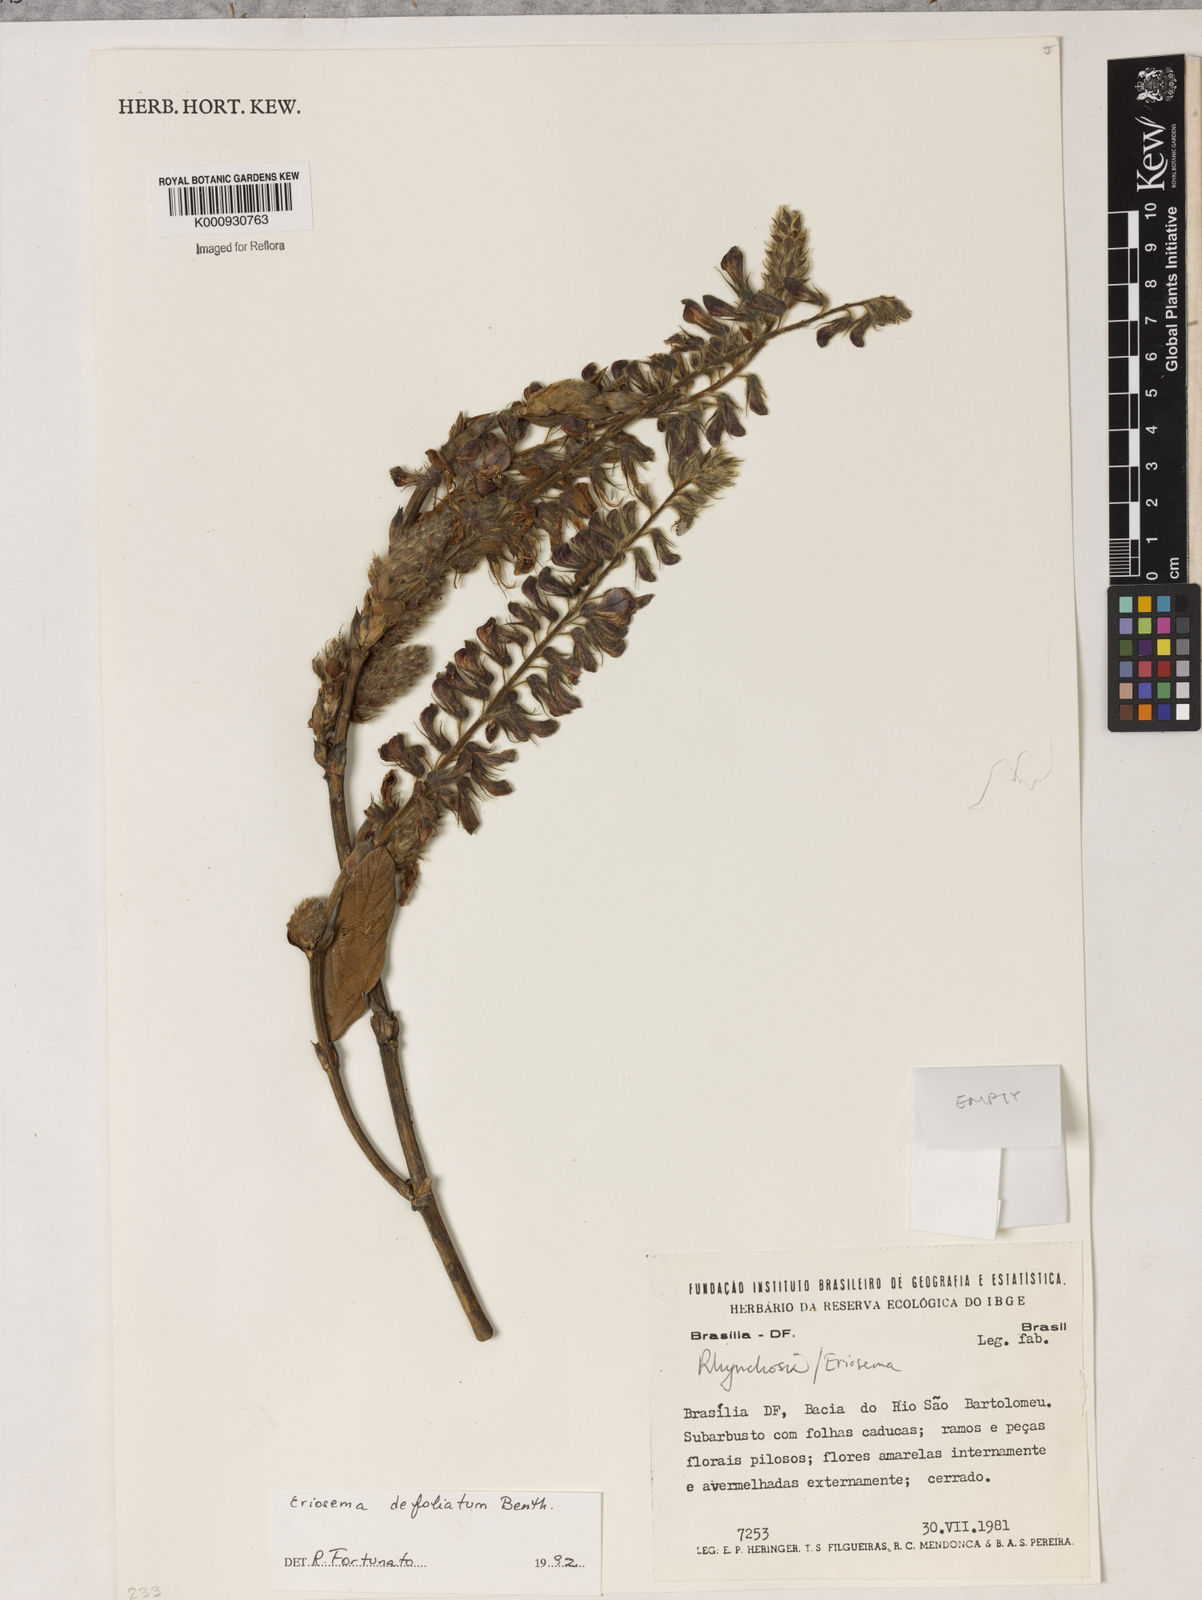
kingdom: Plantae
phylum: Tracheophyta
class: Magnoliopsida
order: Fabales
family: Fabaceae
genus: Eriosema
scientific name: Eriosema defoliatum
